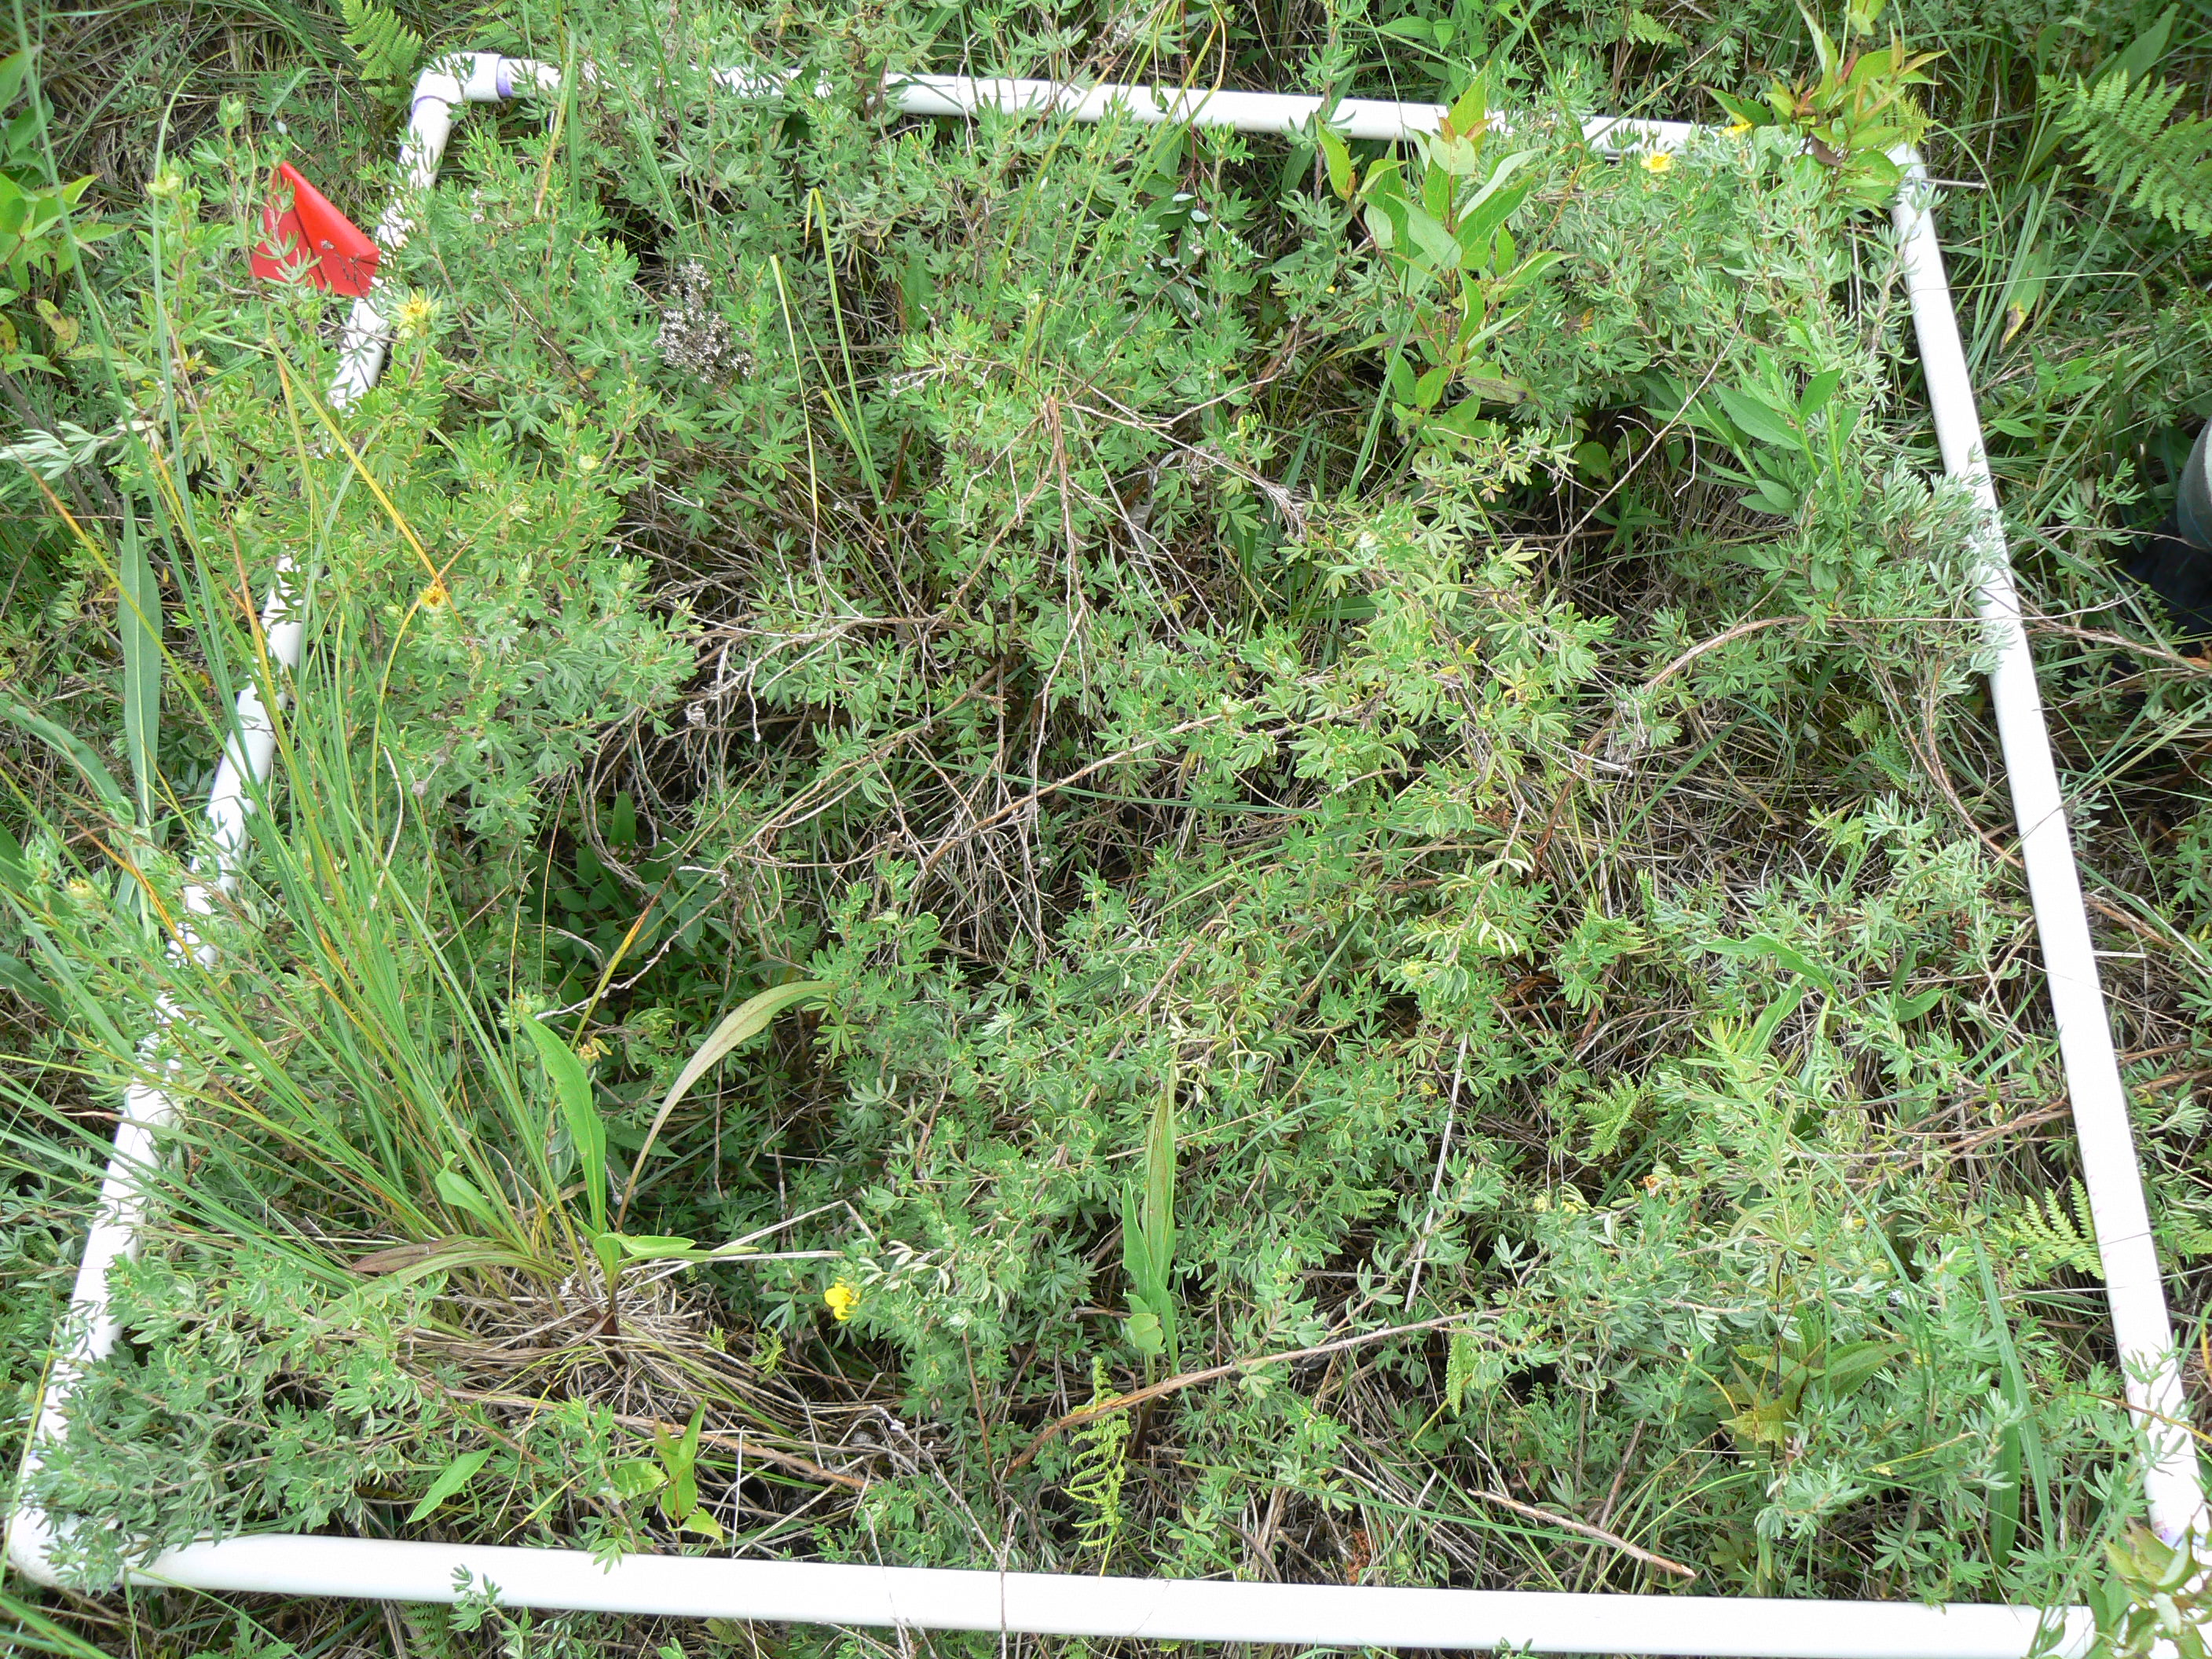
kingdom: Plantae
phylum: Tracheophyta
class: Magnoliopsida
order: Cornales
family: Cornaceae
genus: Cornus
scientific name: Cornus foemina
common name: Swamp dogwood
